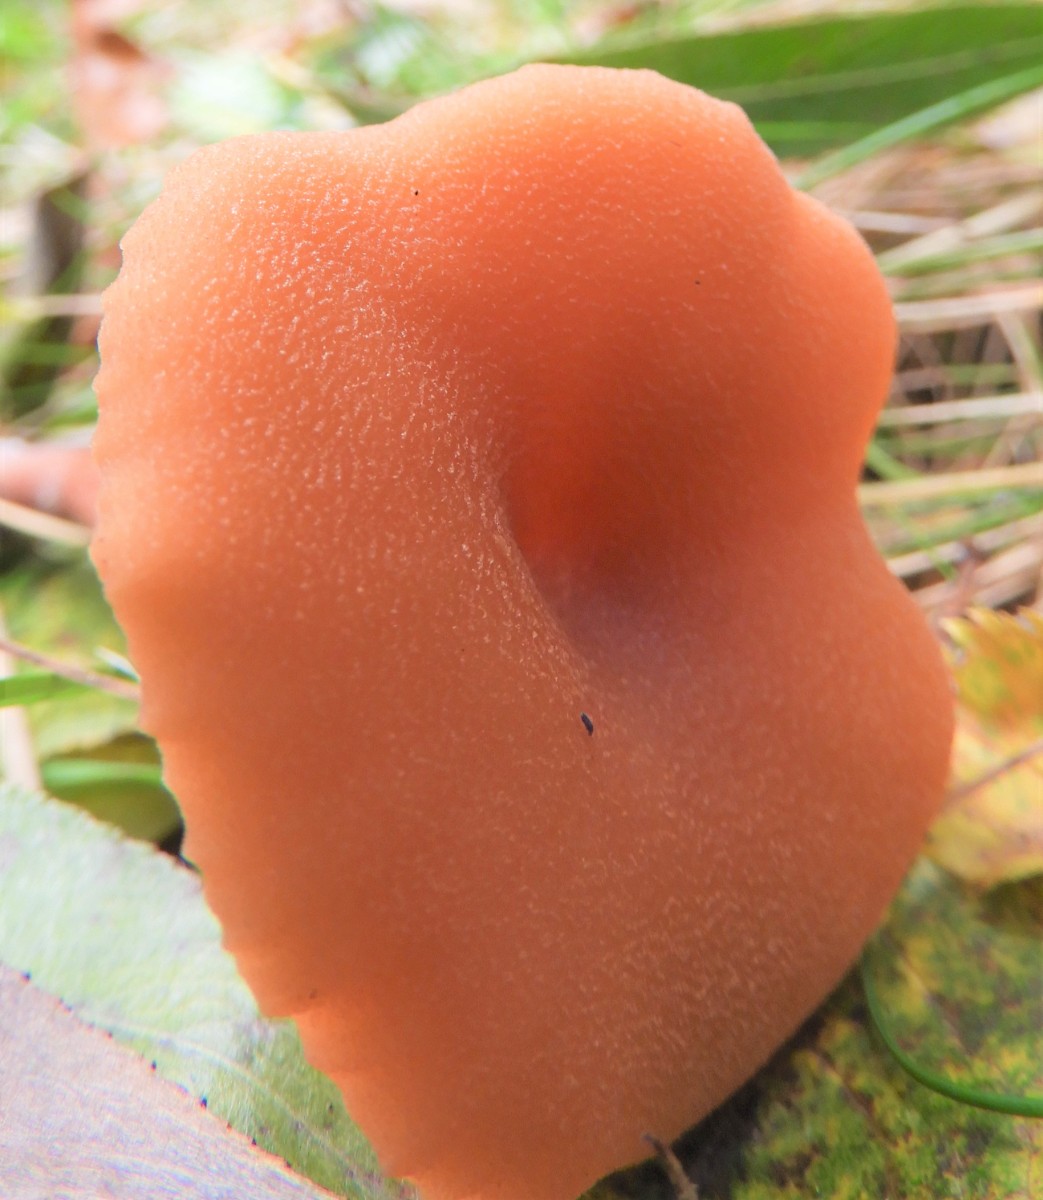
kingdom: Fungi
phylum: Basidiomycota
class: Agaricomycetes
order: Agaricales
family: Hydnangiaceae
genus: Laccaria
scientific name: Laccaria proxima
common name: stor ametysthat
